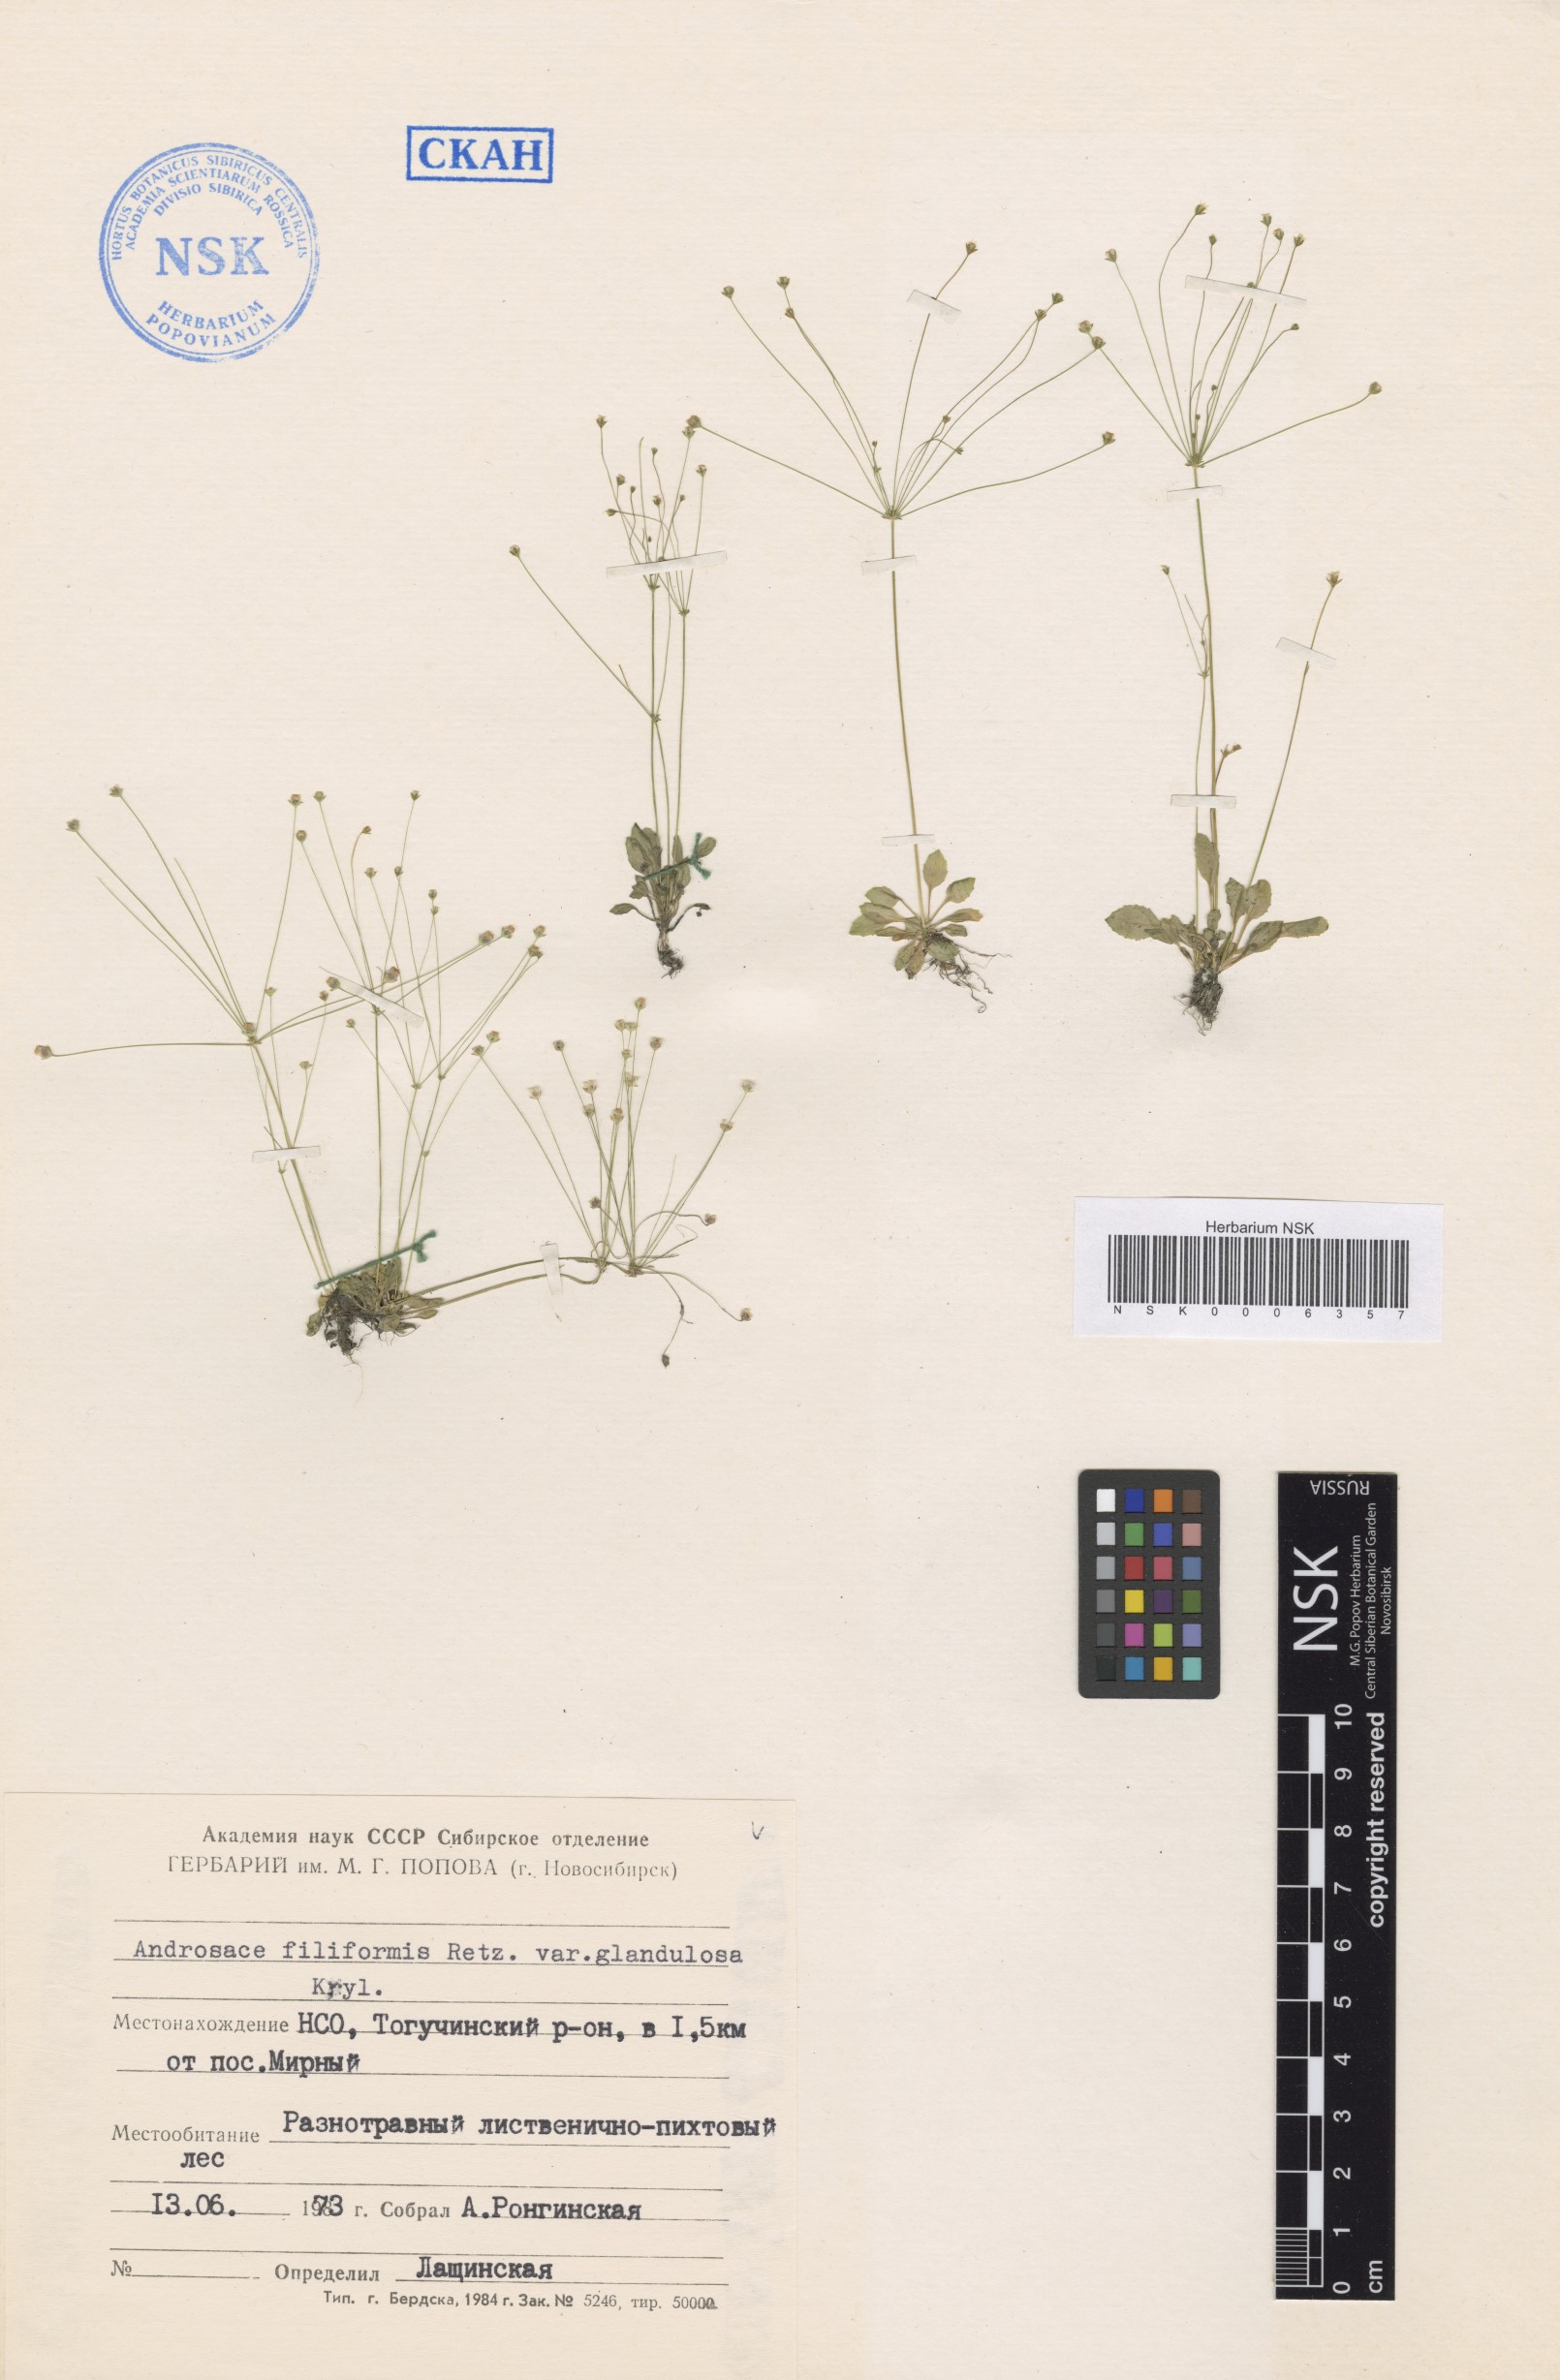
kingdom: Plantae
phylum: Tracheophyta
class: Magnoliopsida
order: Ericales
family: Primulaceae
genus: Androsace
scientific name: Androsace filiformis
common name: Filiform rock jasmine
